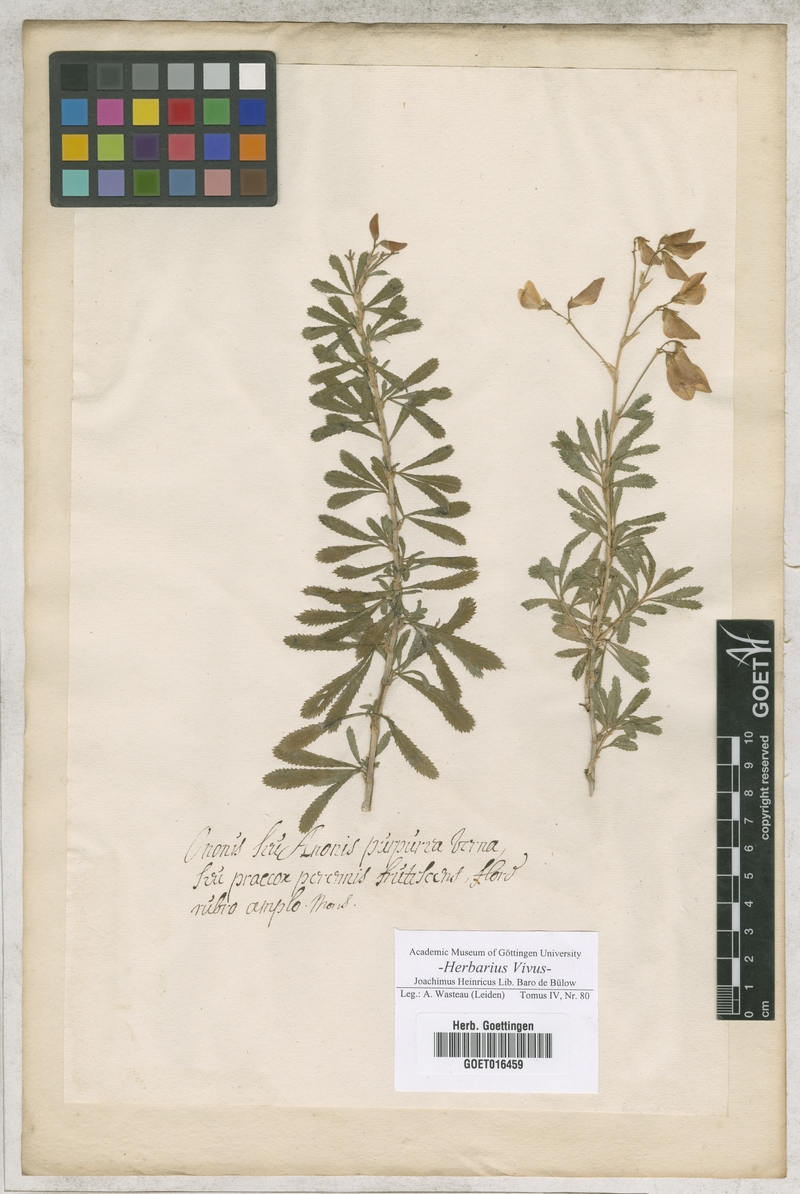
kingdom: Plantae
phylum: Tracheophyta
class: Magnoliopsida
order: Fabales
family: Fabaceae
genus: Ononis
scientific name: Ononis fruticosa
